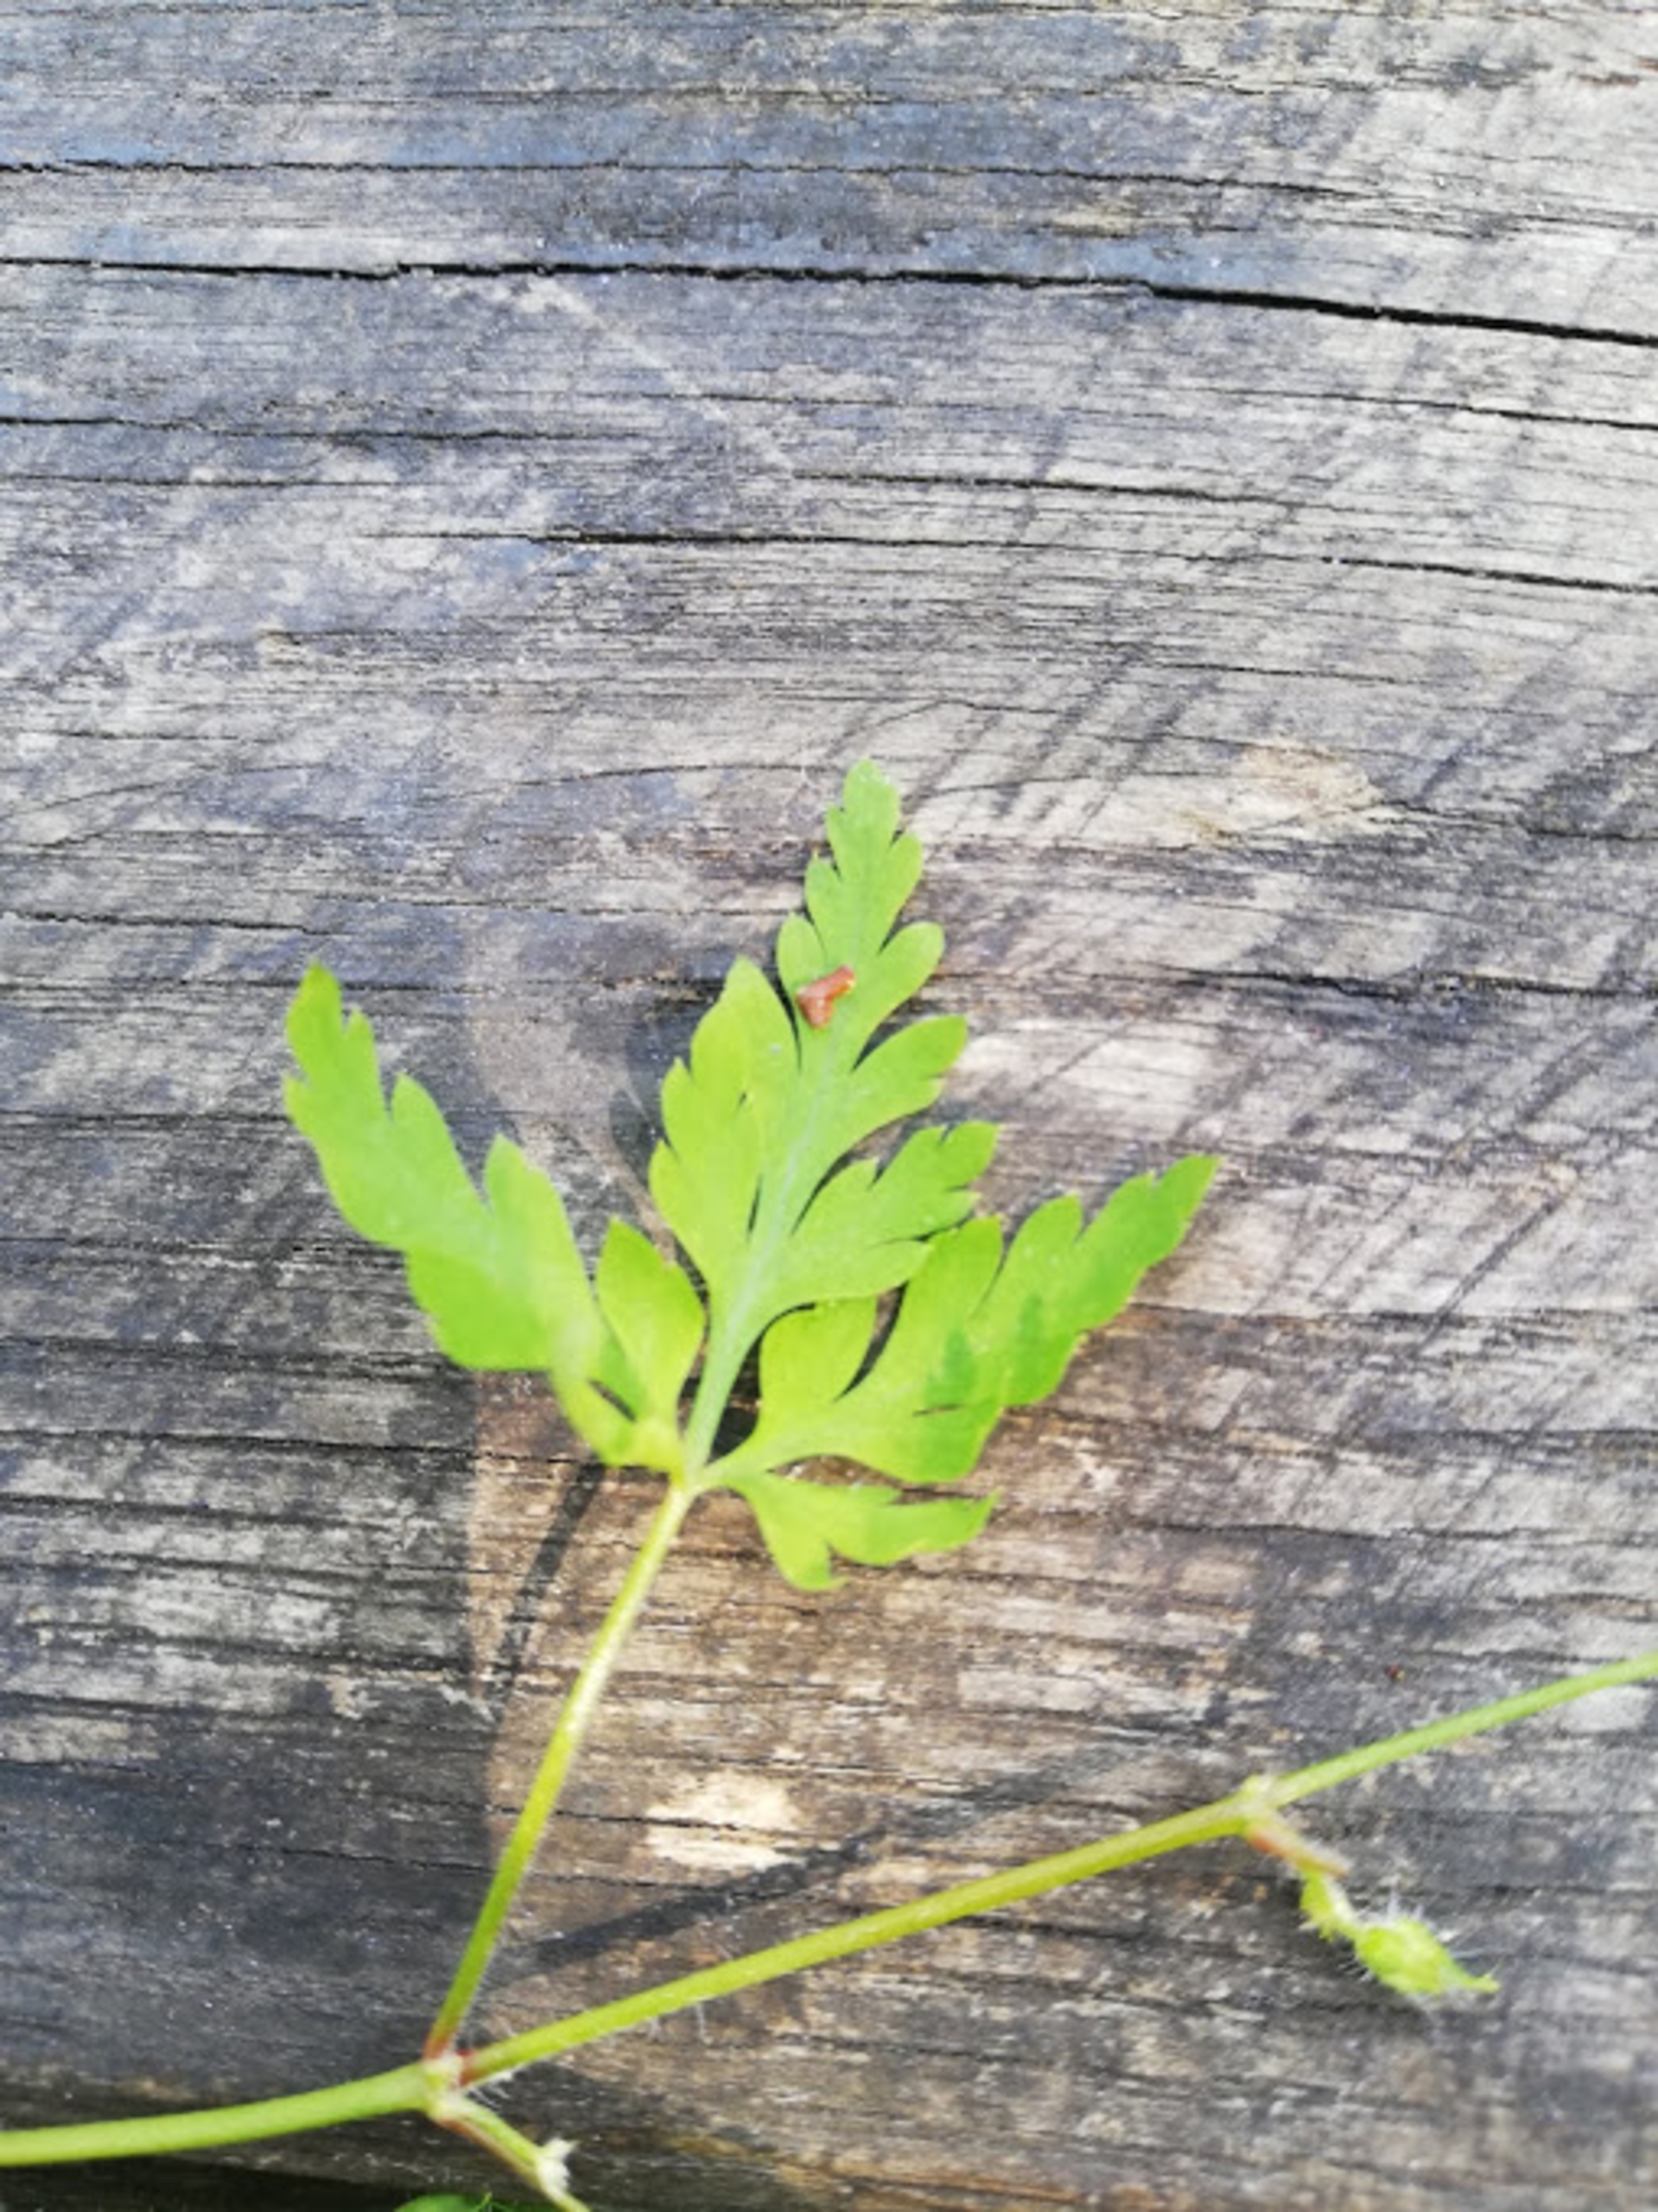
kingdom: Plantae
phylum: Tracheophyta
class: Magnoliopsida
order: Geraniales
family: Geraniaceae
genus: Geranium
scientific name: Geranium robertianum
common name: Stinkende storkenæb
